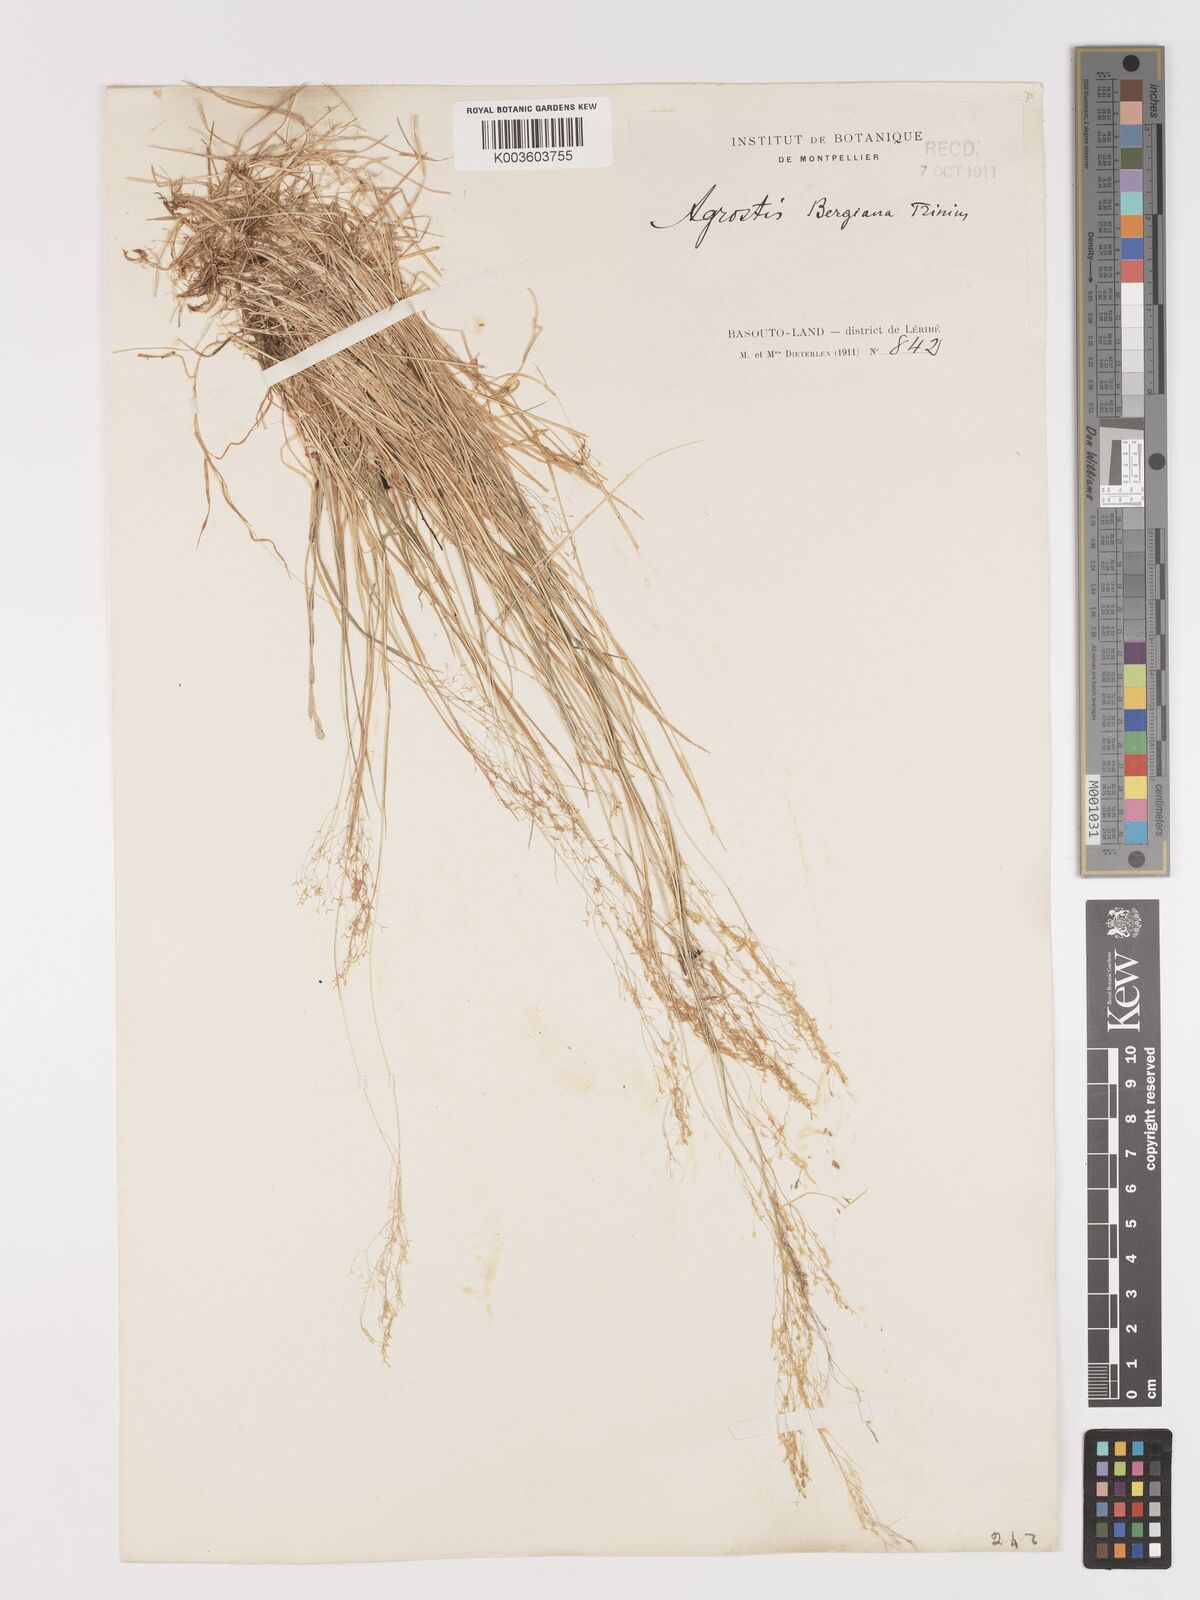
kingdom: Plantae
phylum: Tracheophyta
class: Liliopsida
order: Poales
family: Poaceae
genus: Agrostis
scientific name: Agrostis bergiana
